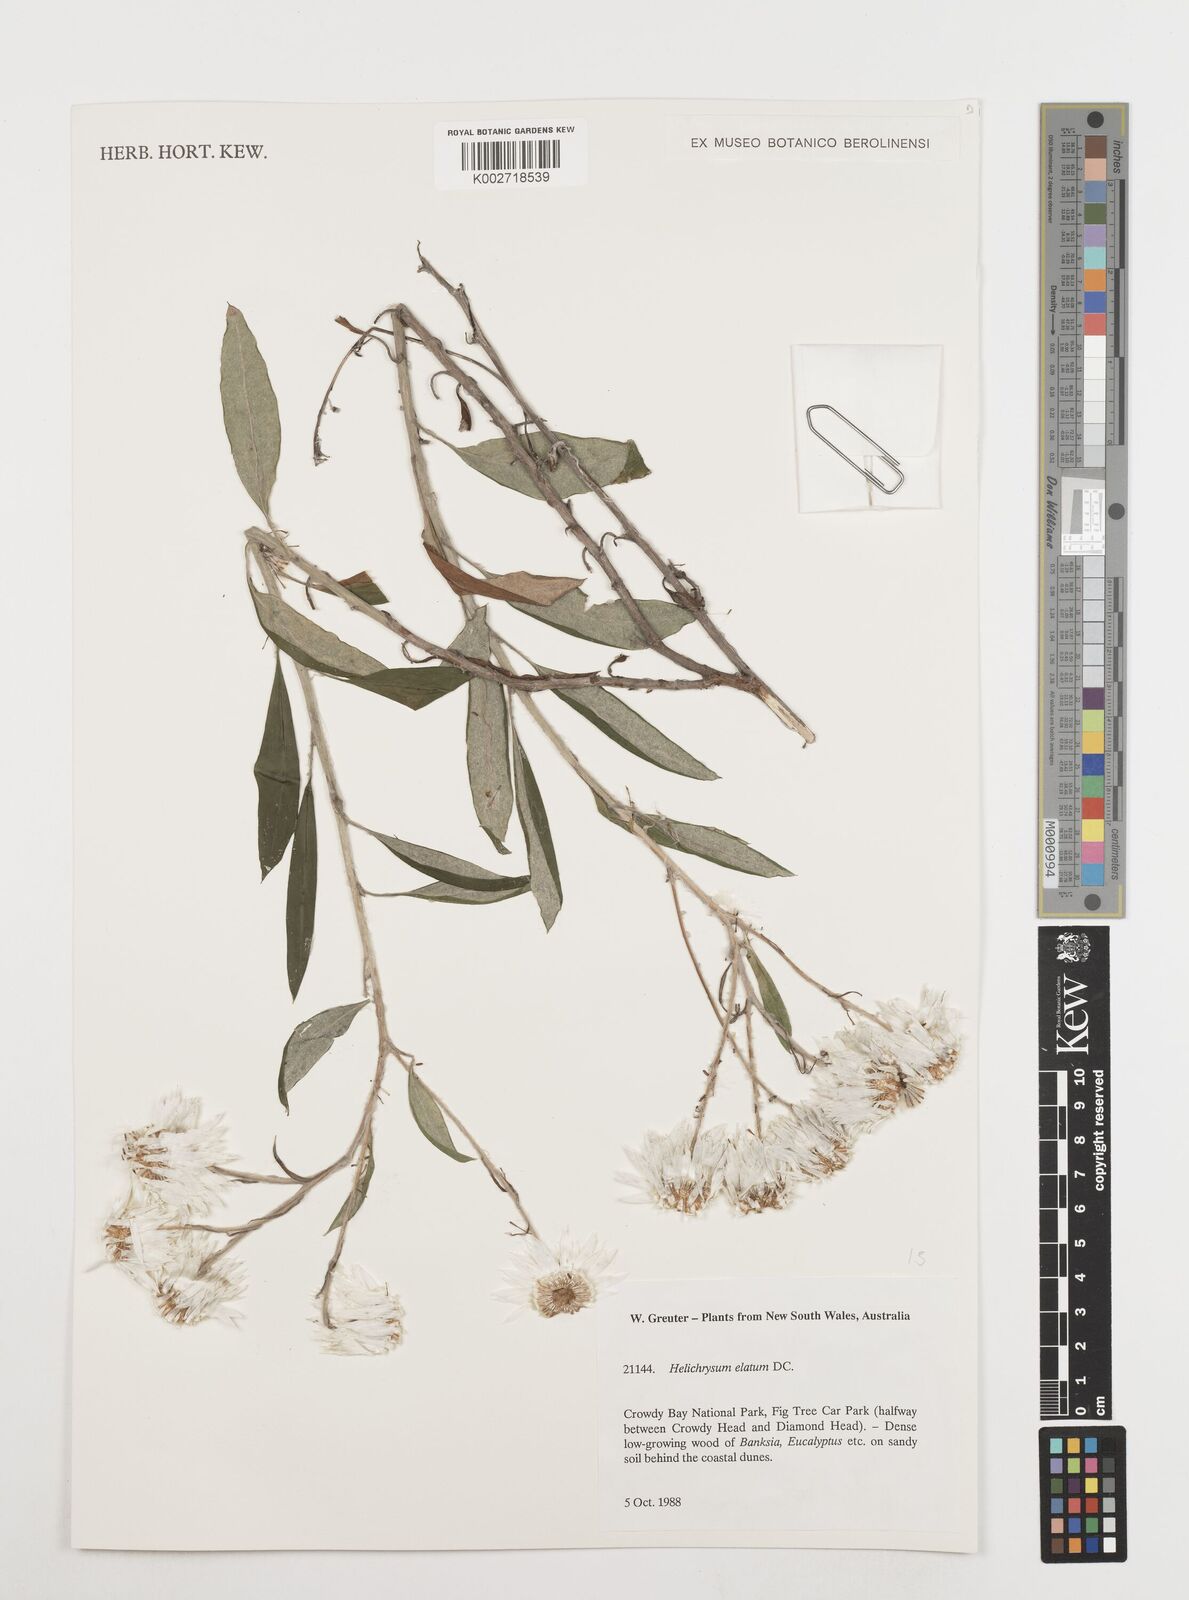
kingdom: Plantae
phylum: Tracheophyta
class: Magnoliopsida
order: Asterales
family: Asteraceae
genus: Leucozoma
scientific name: Leucozoma elatum
